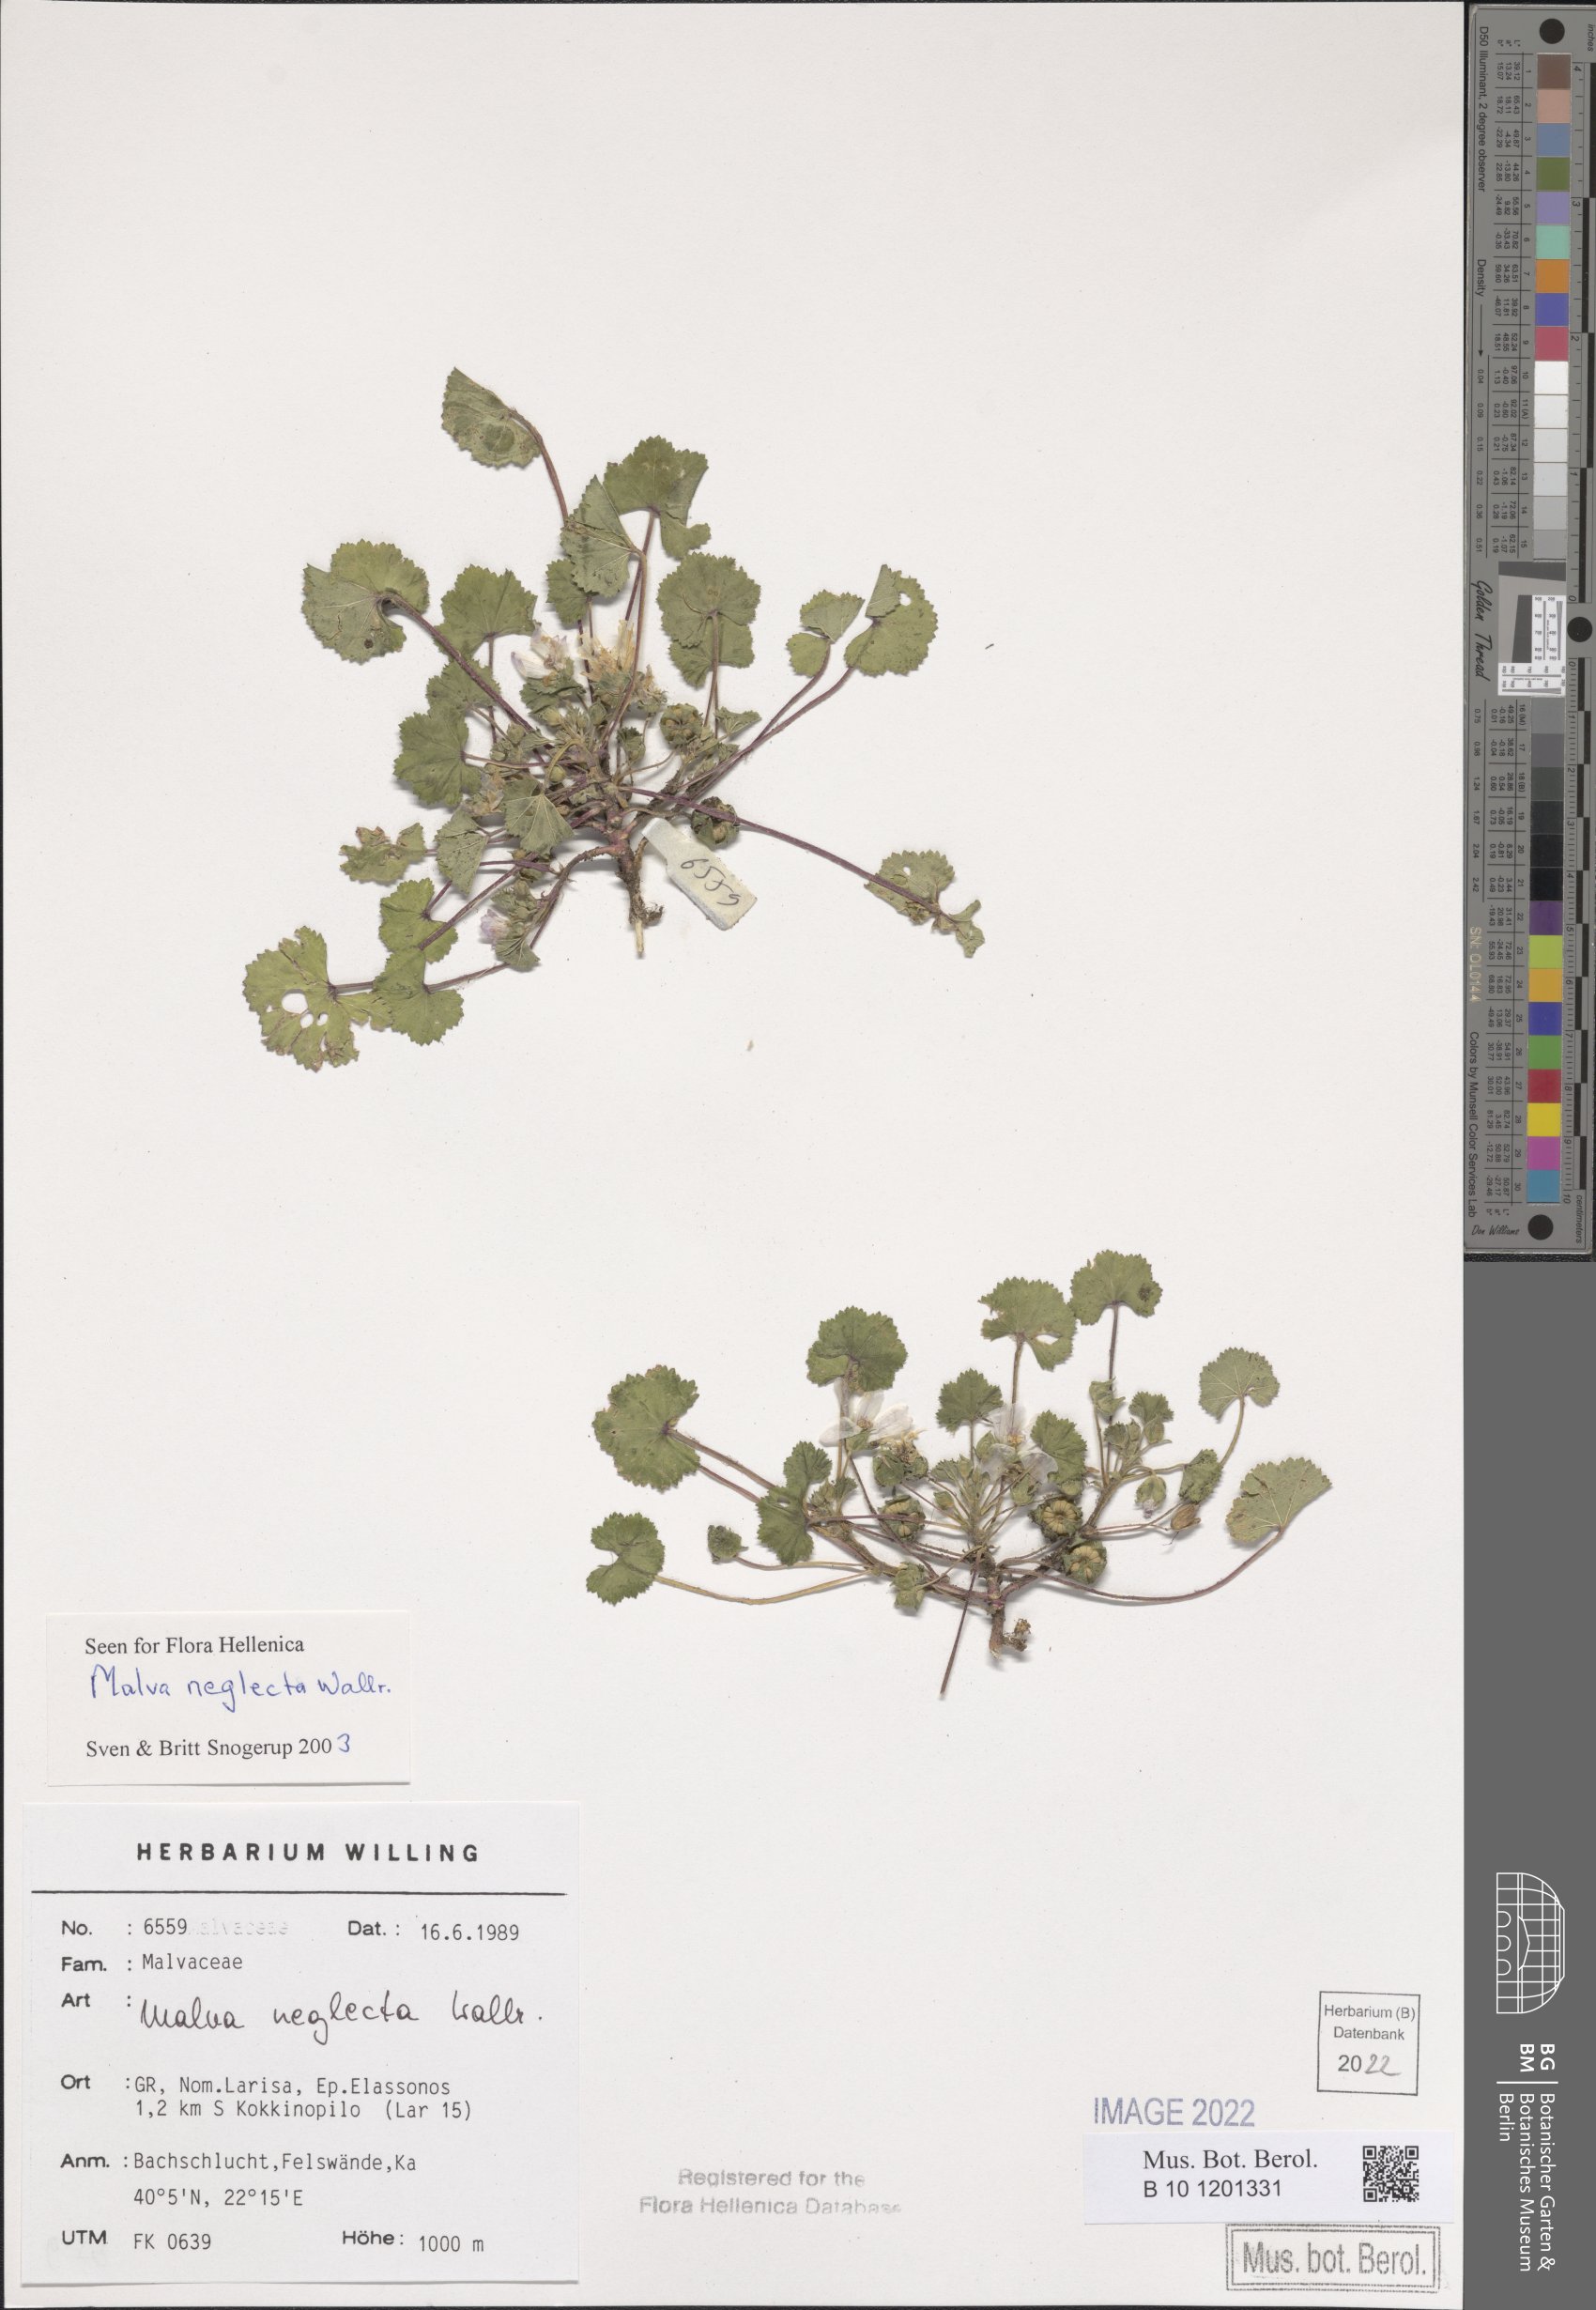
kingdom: Plantae
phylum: Tracheophyta
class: Magnoliopsida
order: Malvales
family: Malvaceae
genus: Malva
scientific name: Malva neglecta
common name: Common mallow
